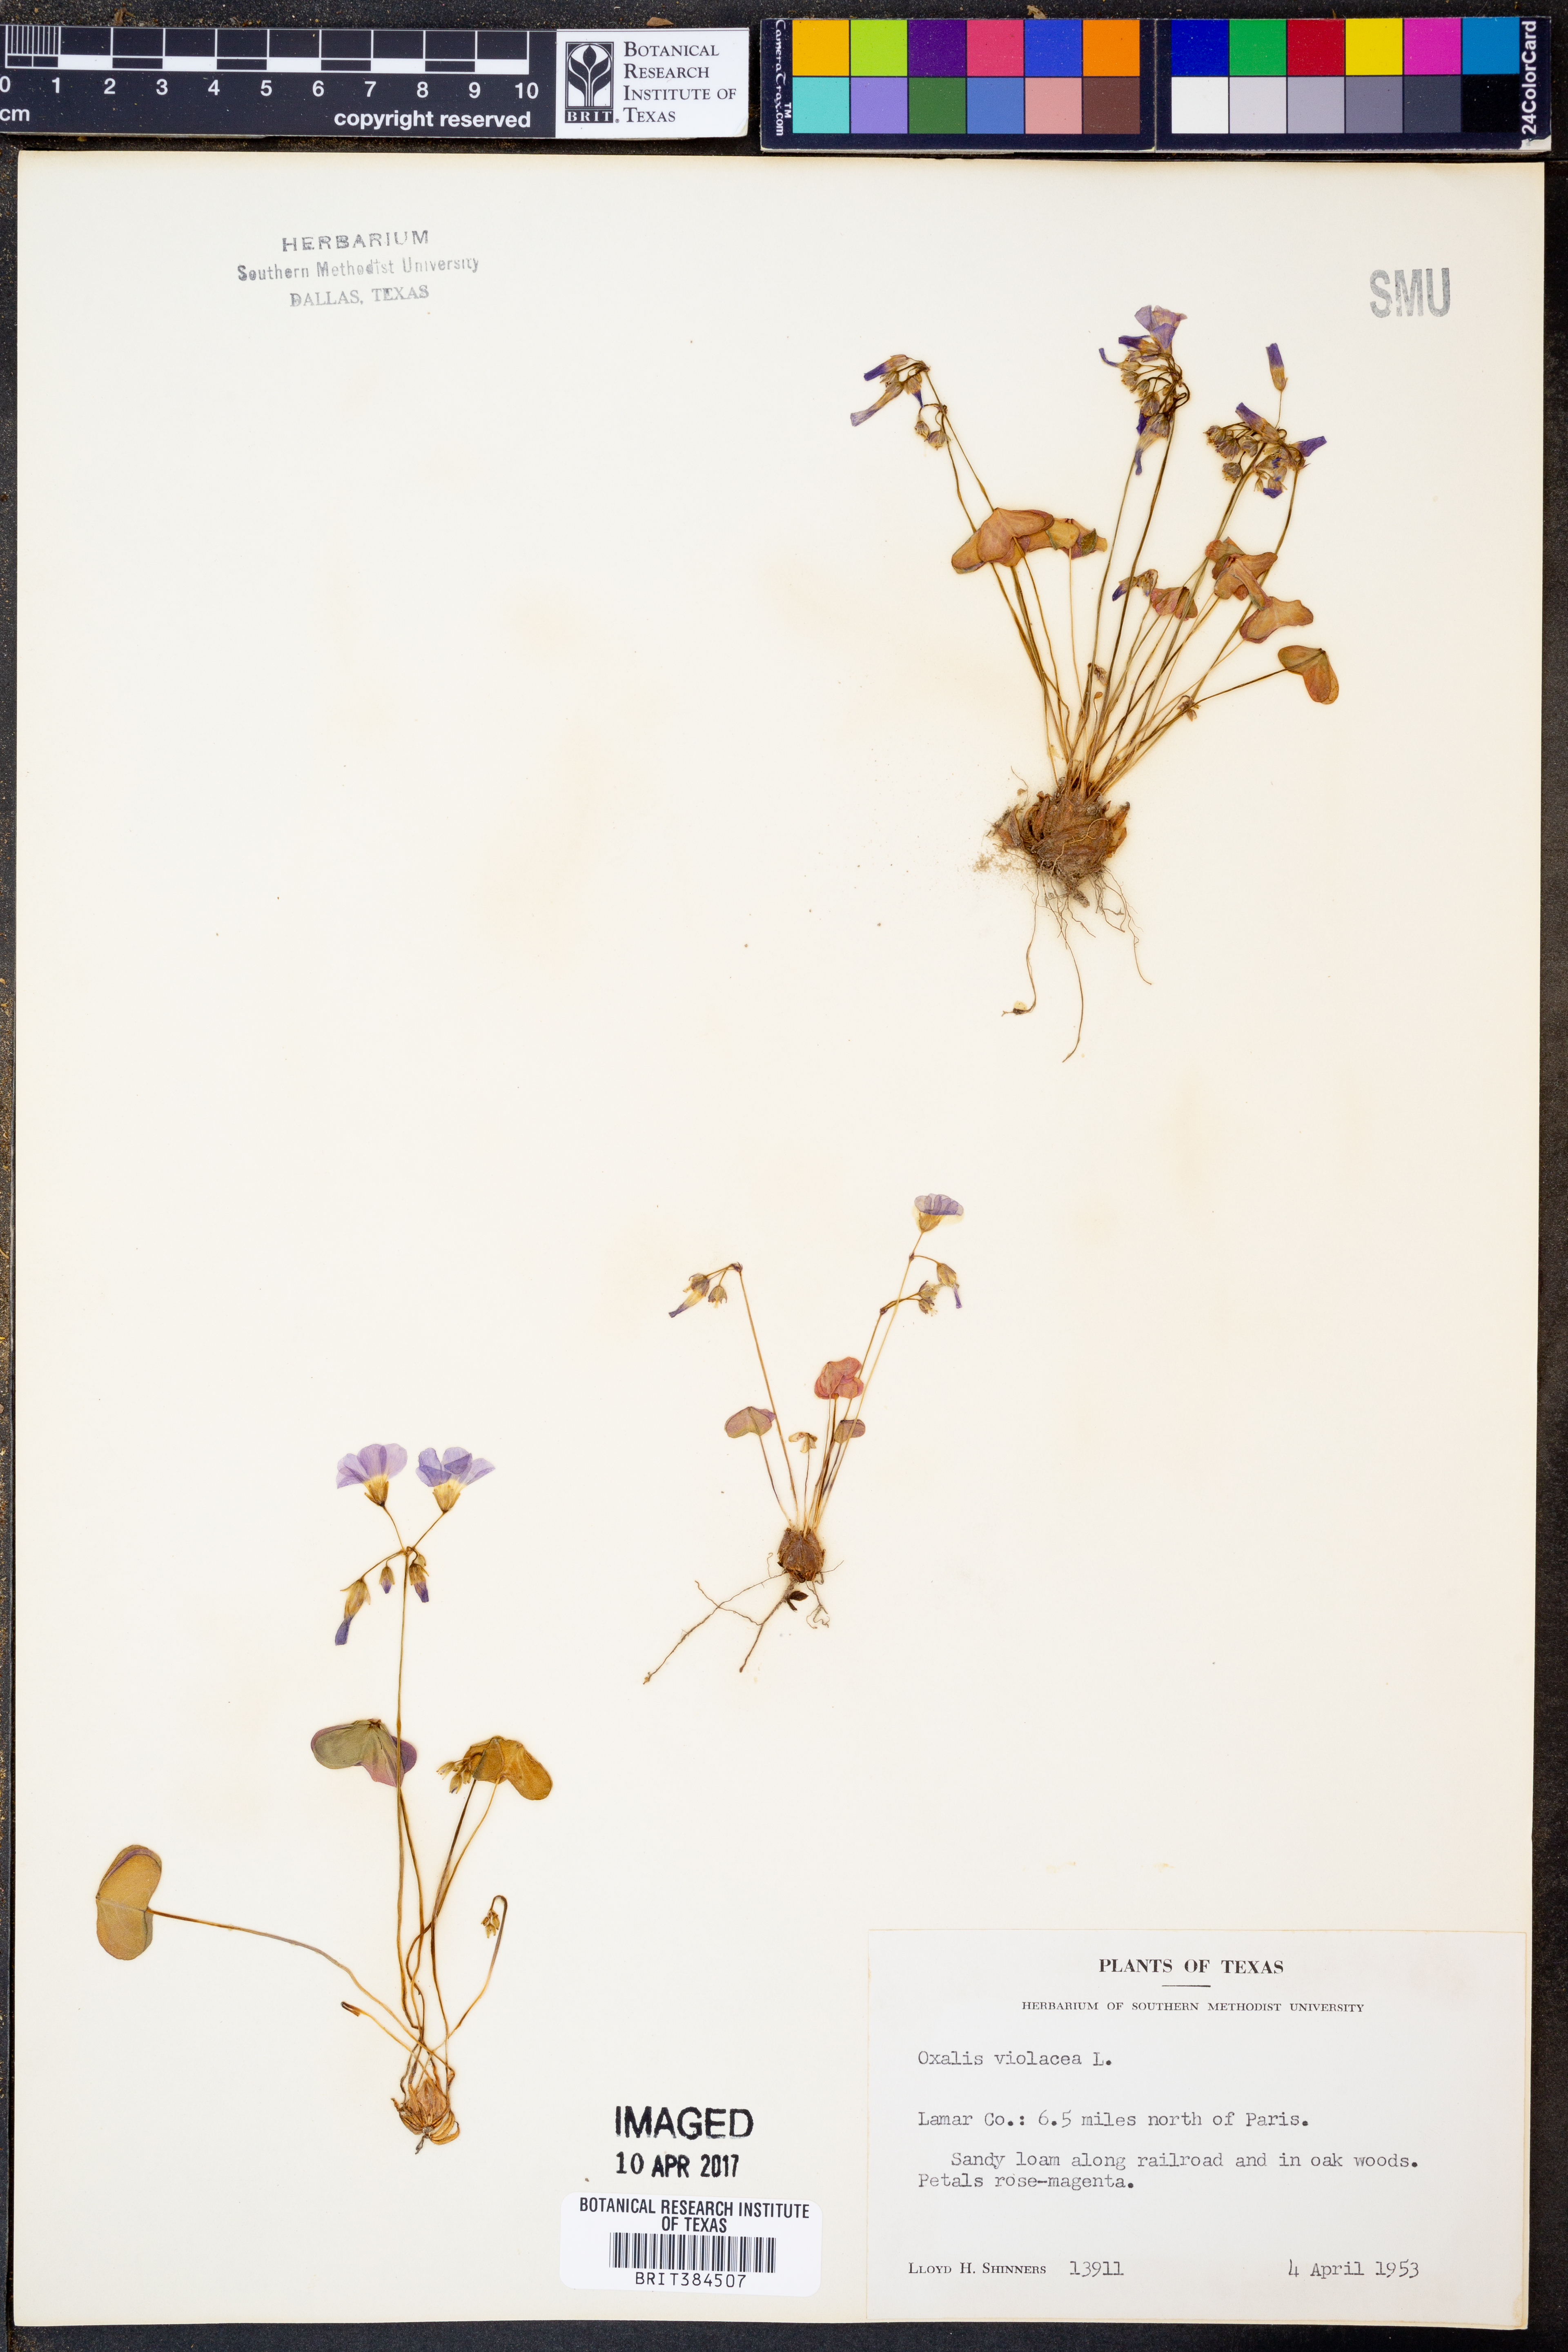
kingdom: Plantae
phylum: Tracheophyta
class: Magnoliopsida
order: Oxalidales
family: Oxalidaceae
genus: Oxalis
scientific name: Oxalis violacea
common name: Violet wood-sorrel
